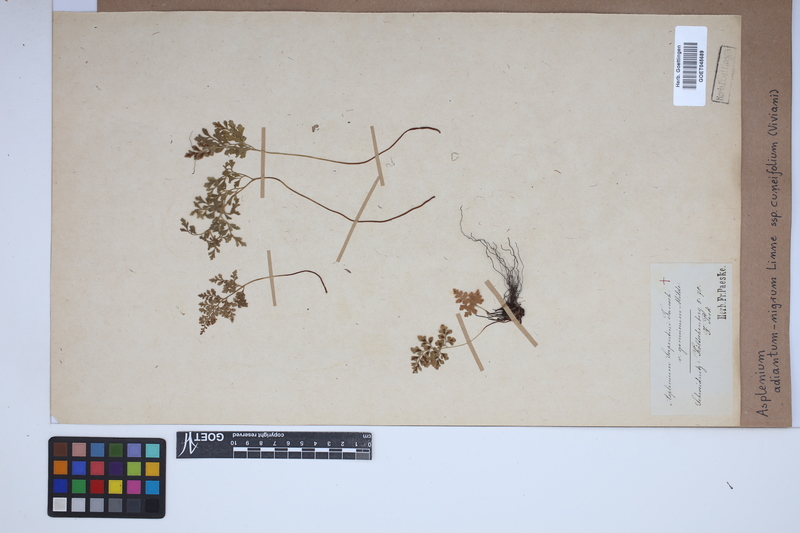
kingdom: Plantae
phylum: Tracheophyta
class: Polypodiopsida
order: Polypodiales
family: Aspleniaceae
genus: Asplenium
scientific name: Asplenium cuneifolium
